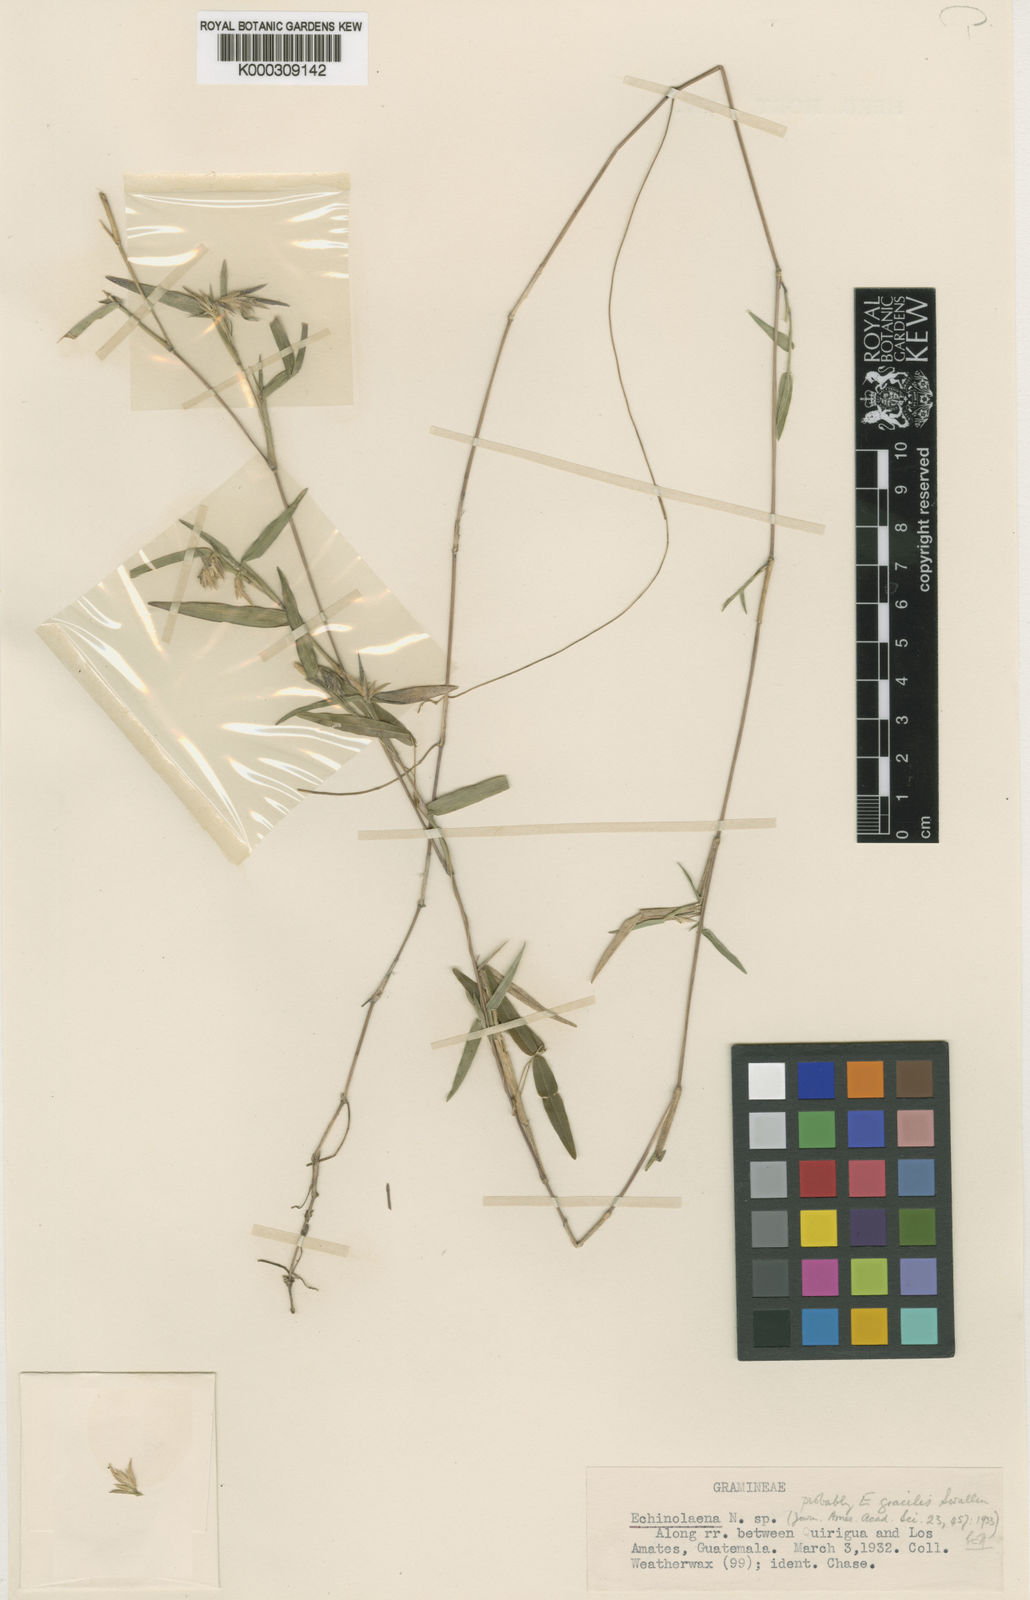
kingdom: Plantae
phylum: Tracheophyta
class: Liliopsida
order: Poales
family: Poaceae
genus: Echinolaena
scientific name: Echinolaena gracilis
